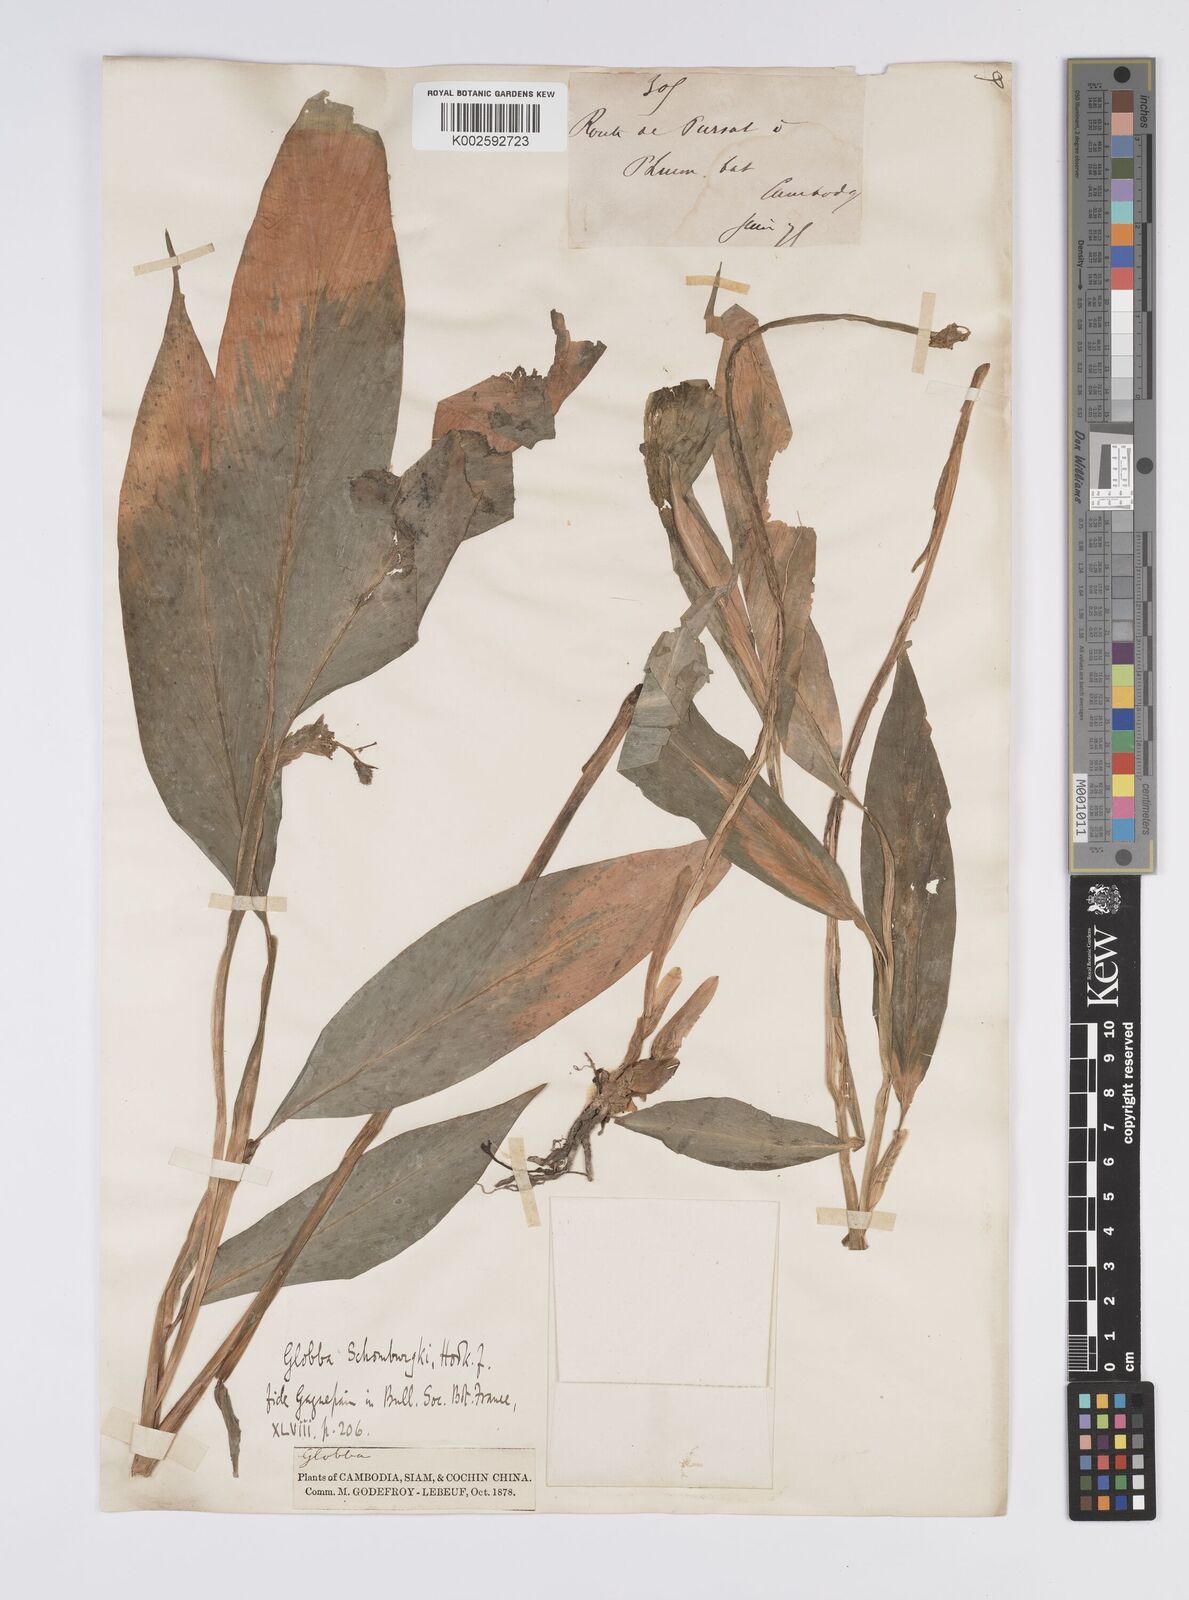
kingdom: Plantae
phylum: Tracheophyta
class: Liliopsida
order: Zingiberales
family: Zingiberaceae
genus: Globba
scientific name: Globba schomburgkii
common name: Dancing girl ginger
